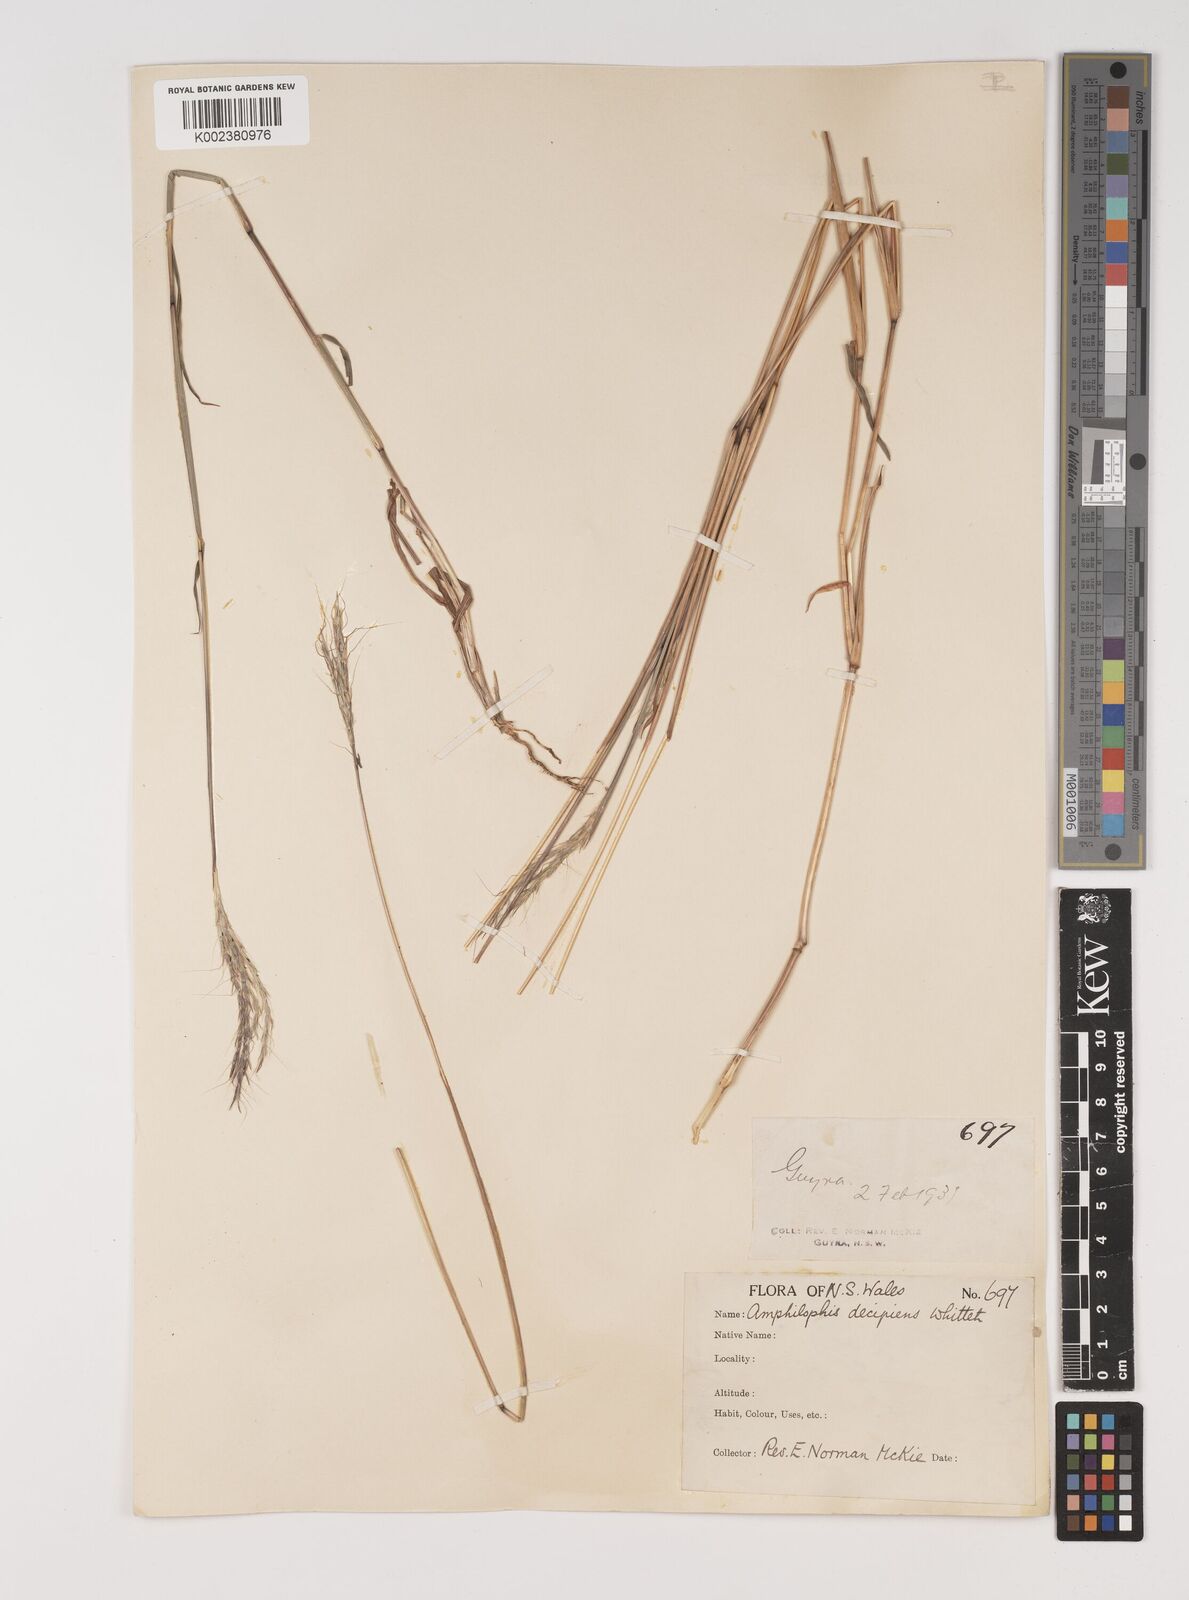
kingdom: Plantae
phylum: Tracheophyta
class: Liliopsida
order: Poales
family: Poaceae
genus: Bothriochloa
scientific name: Bothriochloa decipiens
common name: Pitted-bluegrass
